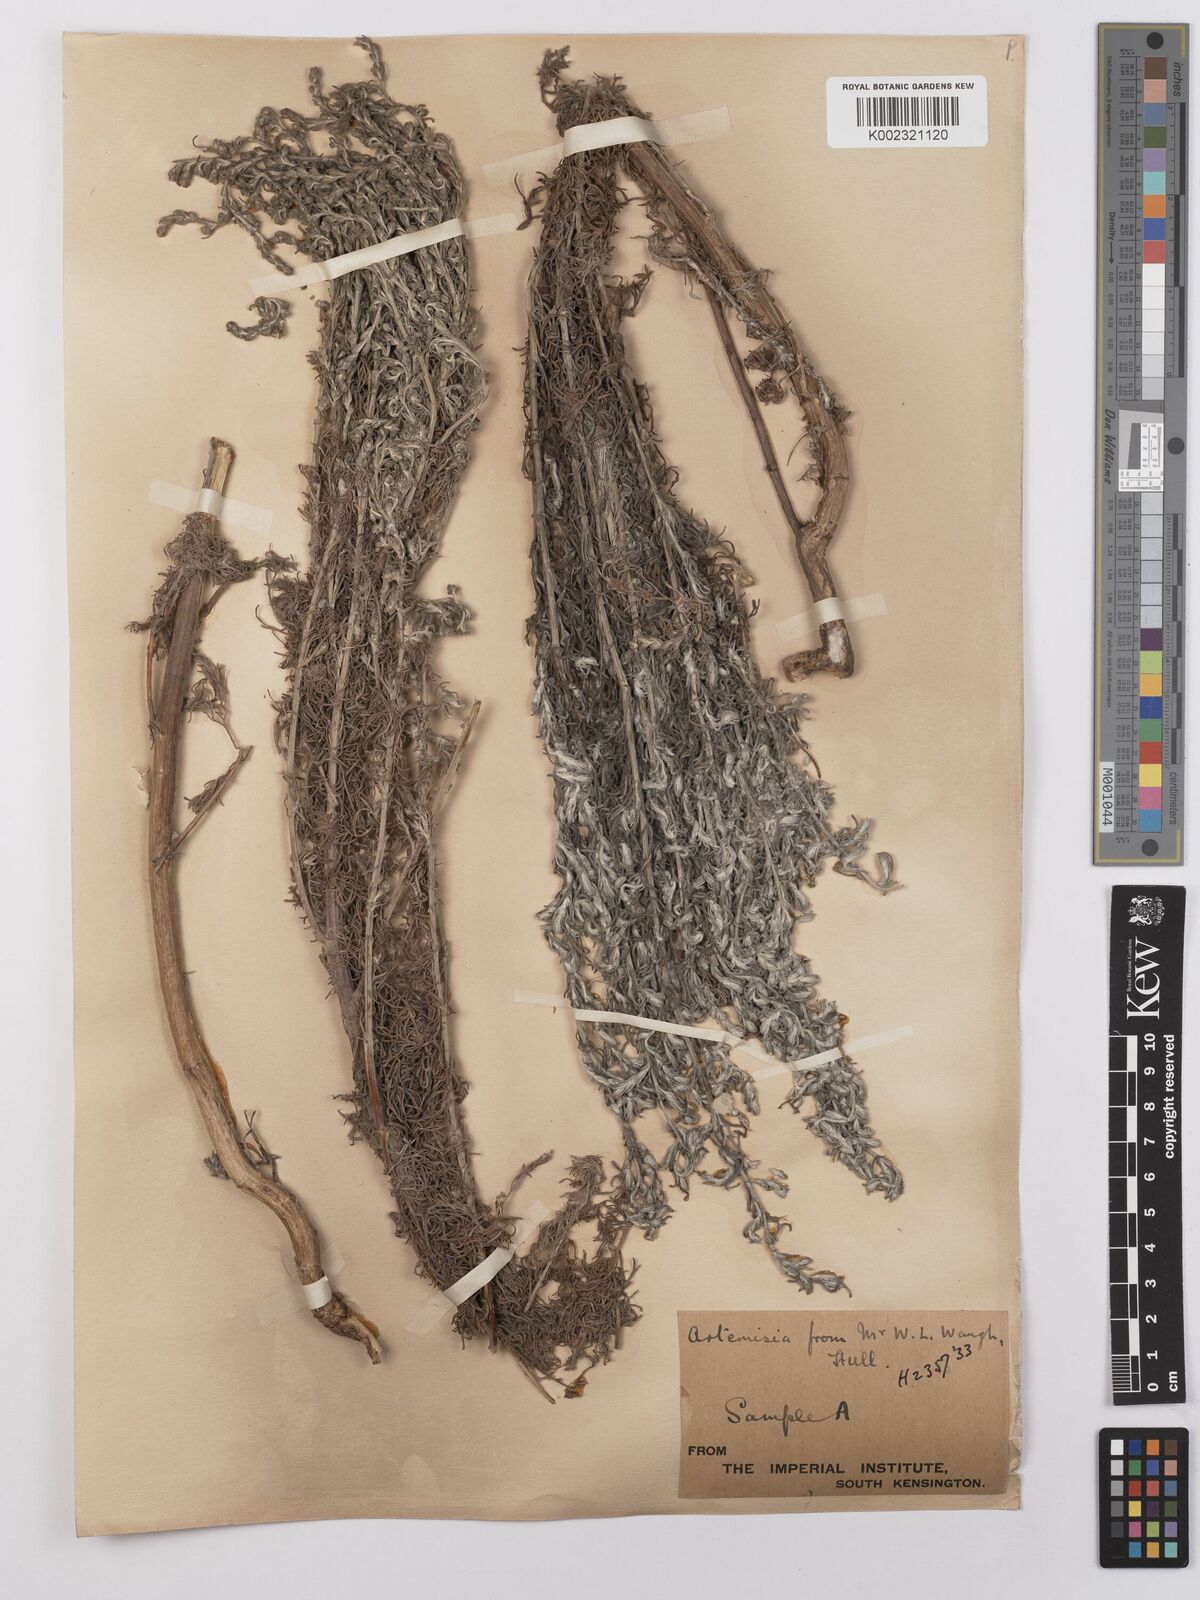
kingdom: Plantae
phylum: Tracheophyta
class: Magnoliopsida
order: Asterales
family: Asteraceae
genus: Artemisia
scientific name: Artemisia maritima
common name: Wormseed
